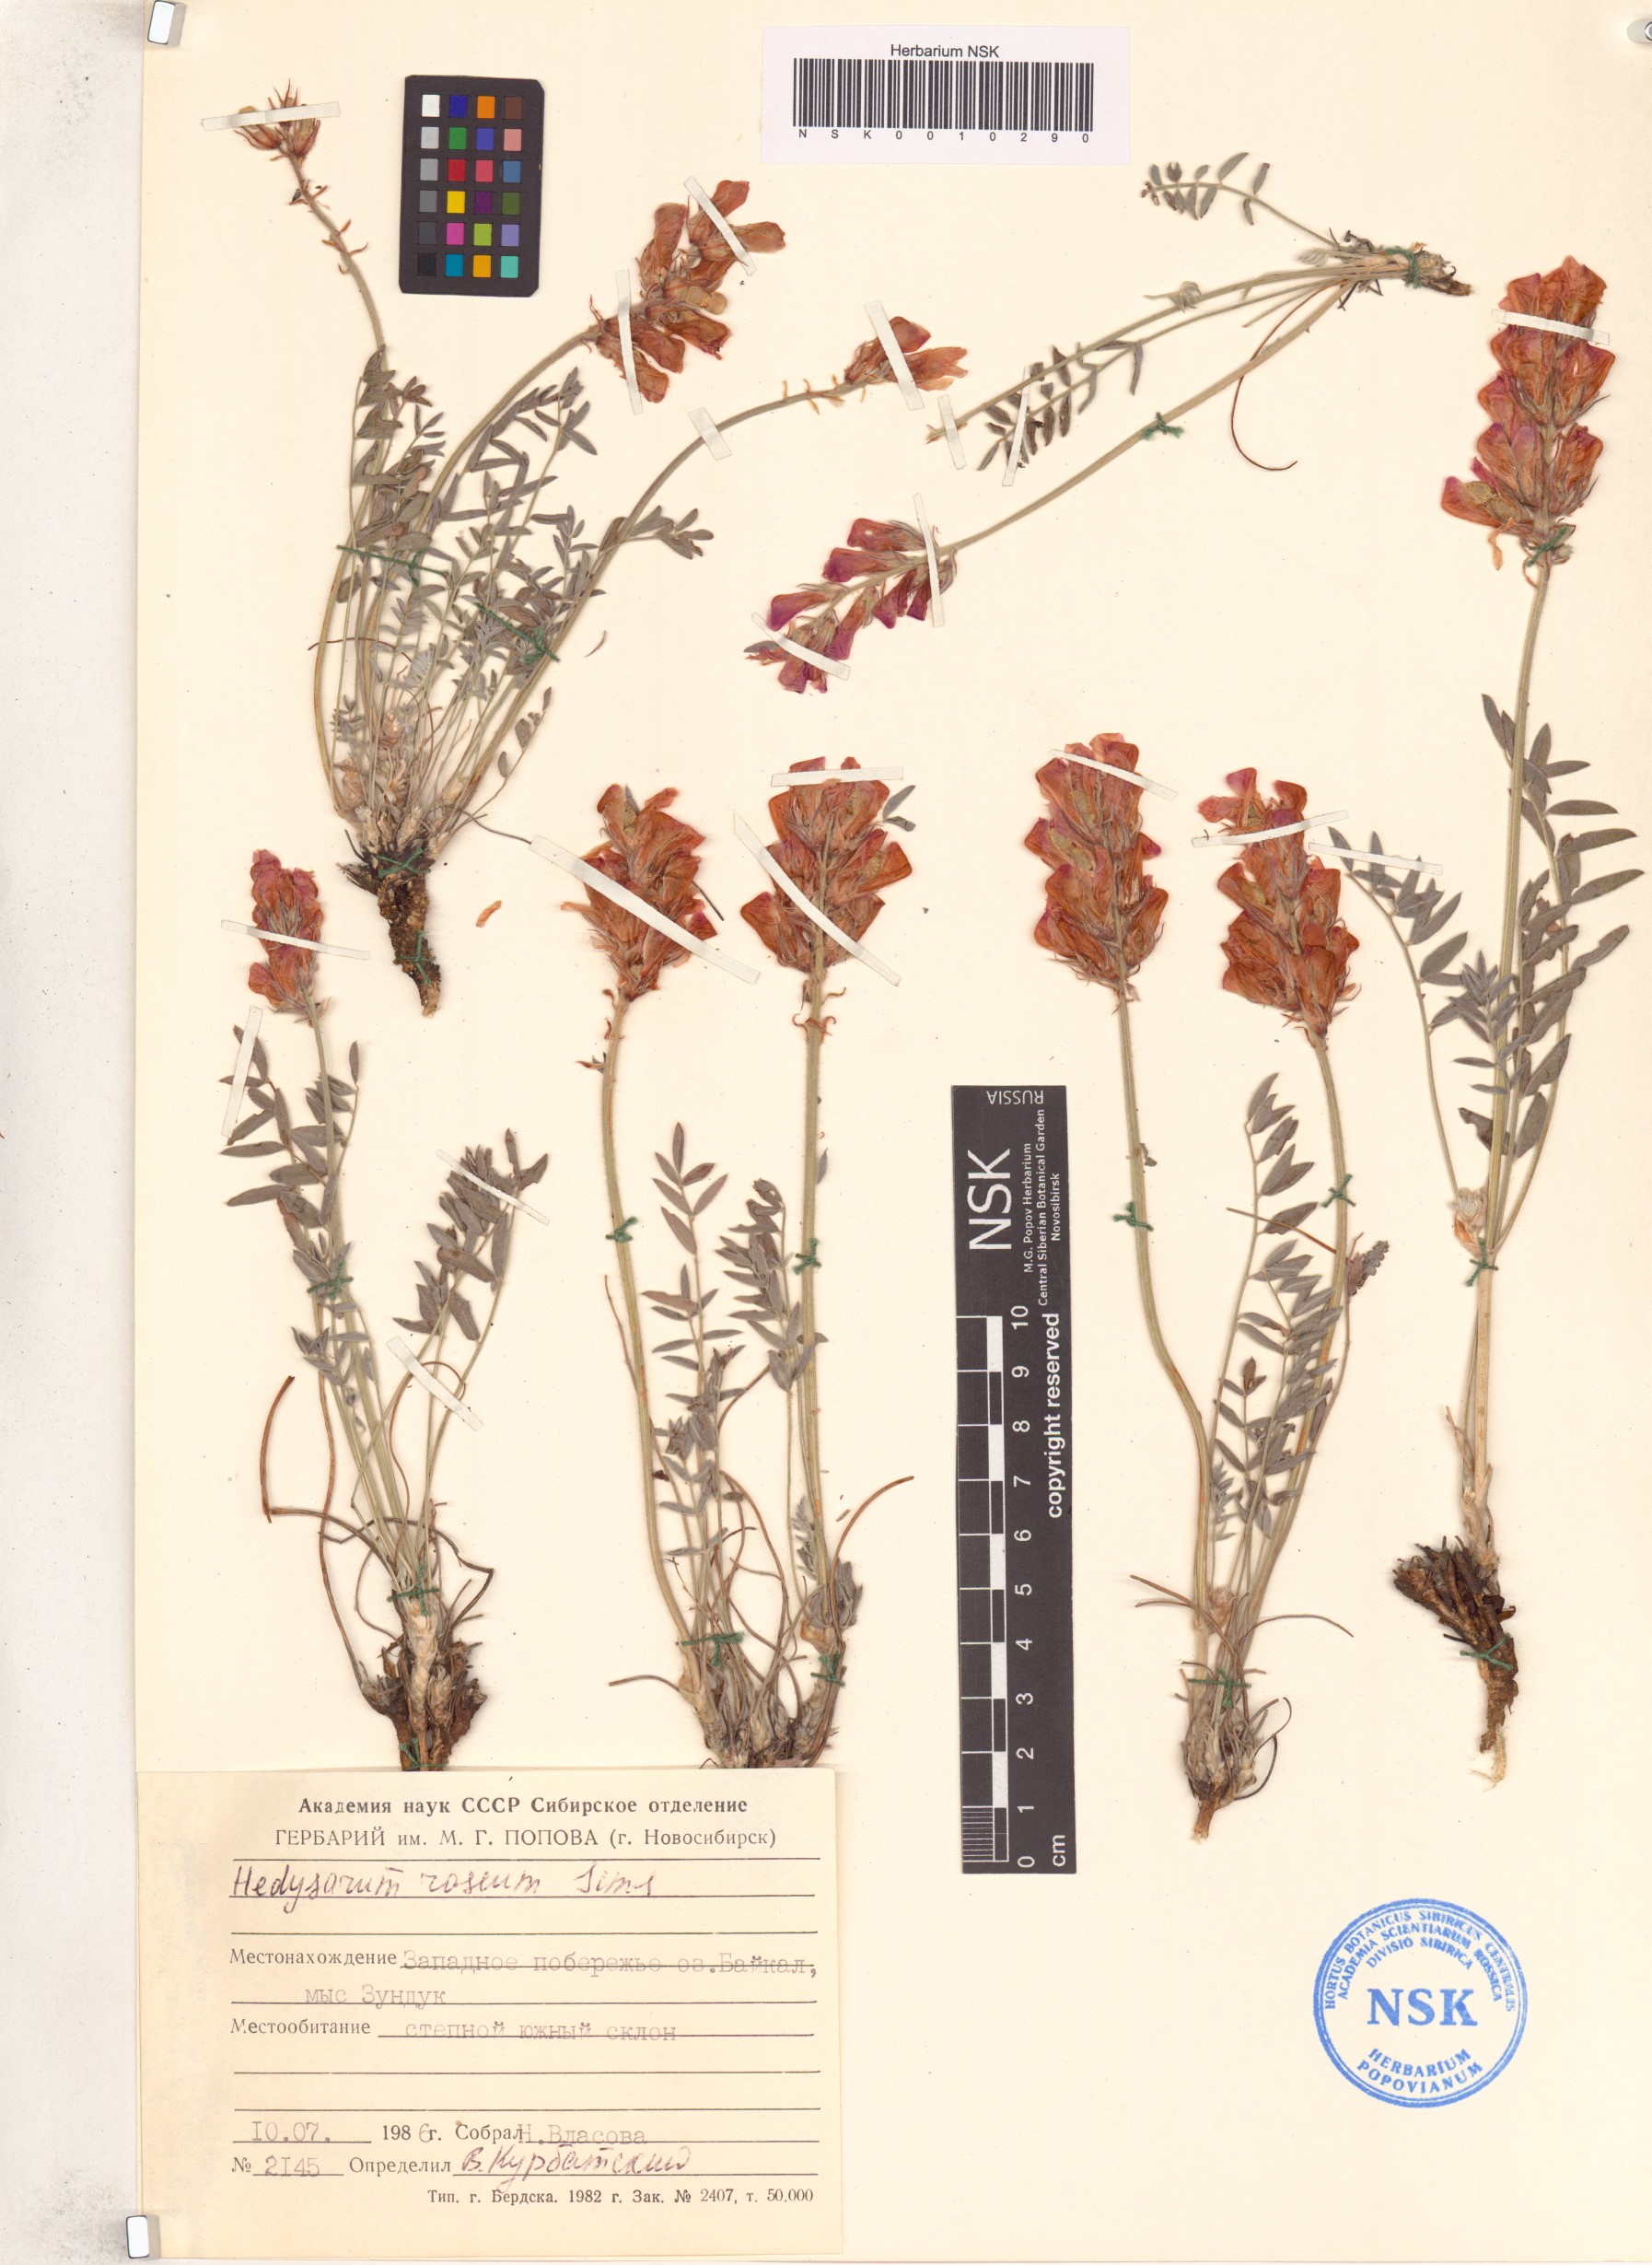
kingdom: Plantae
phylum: Tracheophyta
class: Magnoliopsida
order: Fabales
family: Fabaceae
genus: Hedysarum
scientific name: Hedysarum roseum
